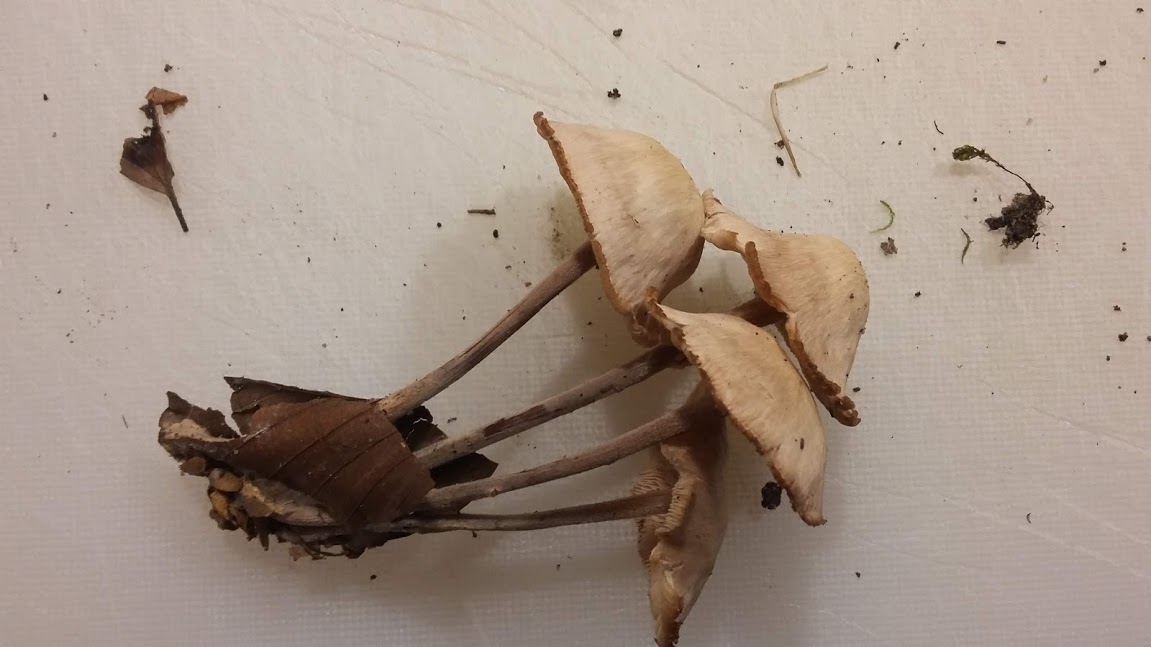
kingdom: Fungi
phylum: Basidiomycota
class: Agaricomycetes
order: Agaricales
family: Omphalotaceae
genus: Collybiopsis
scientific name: Collybiopsis confluens
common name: knippe-fladhat
